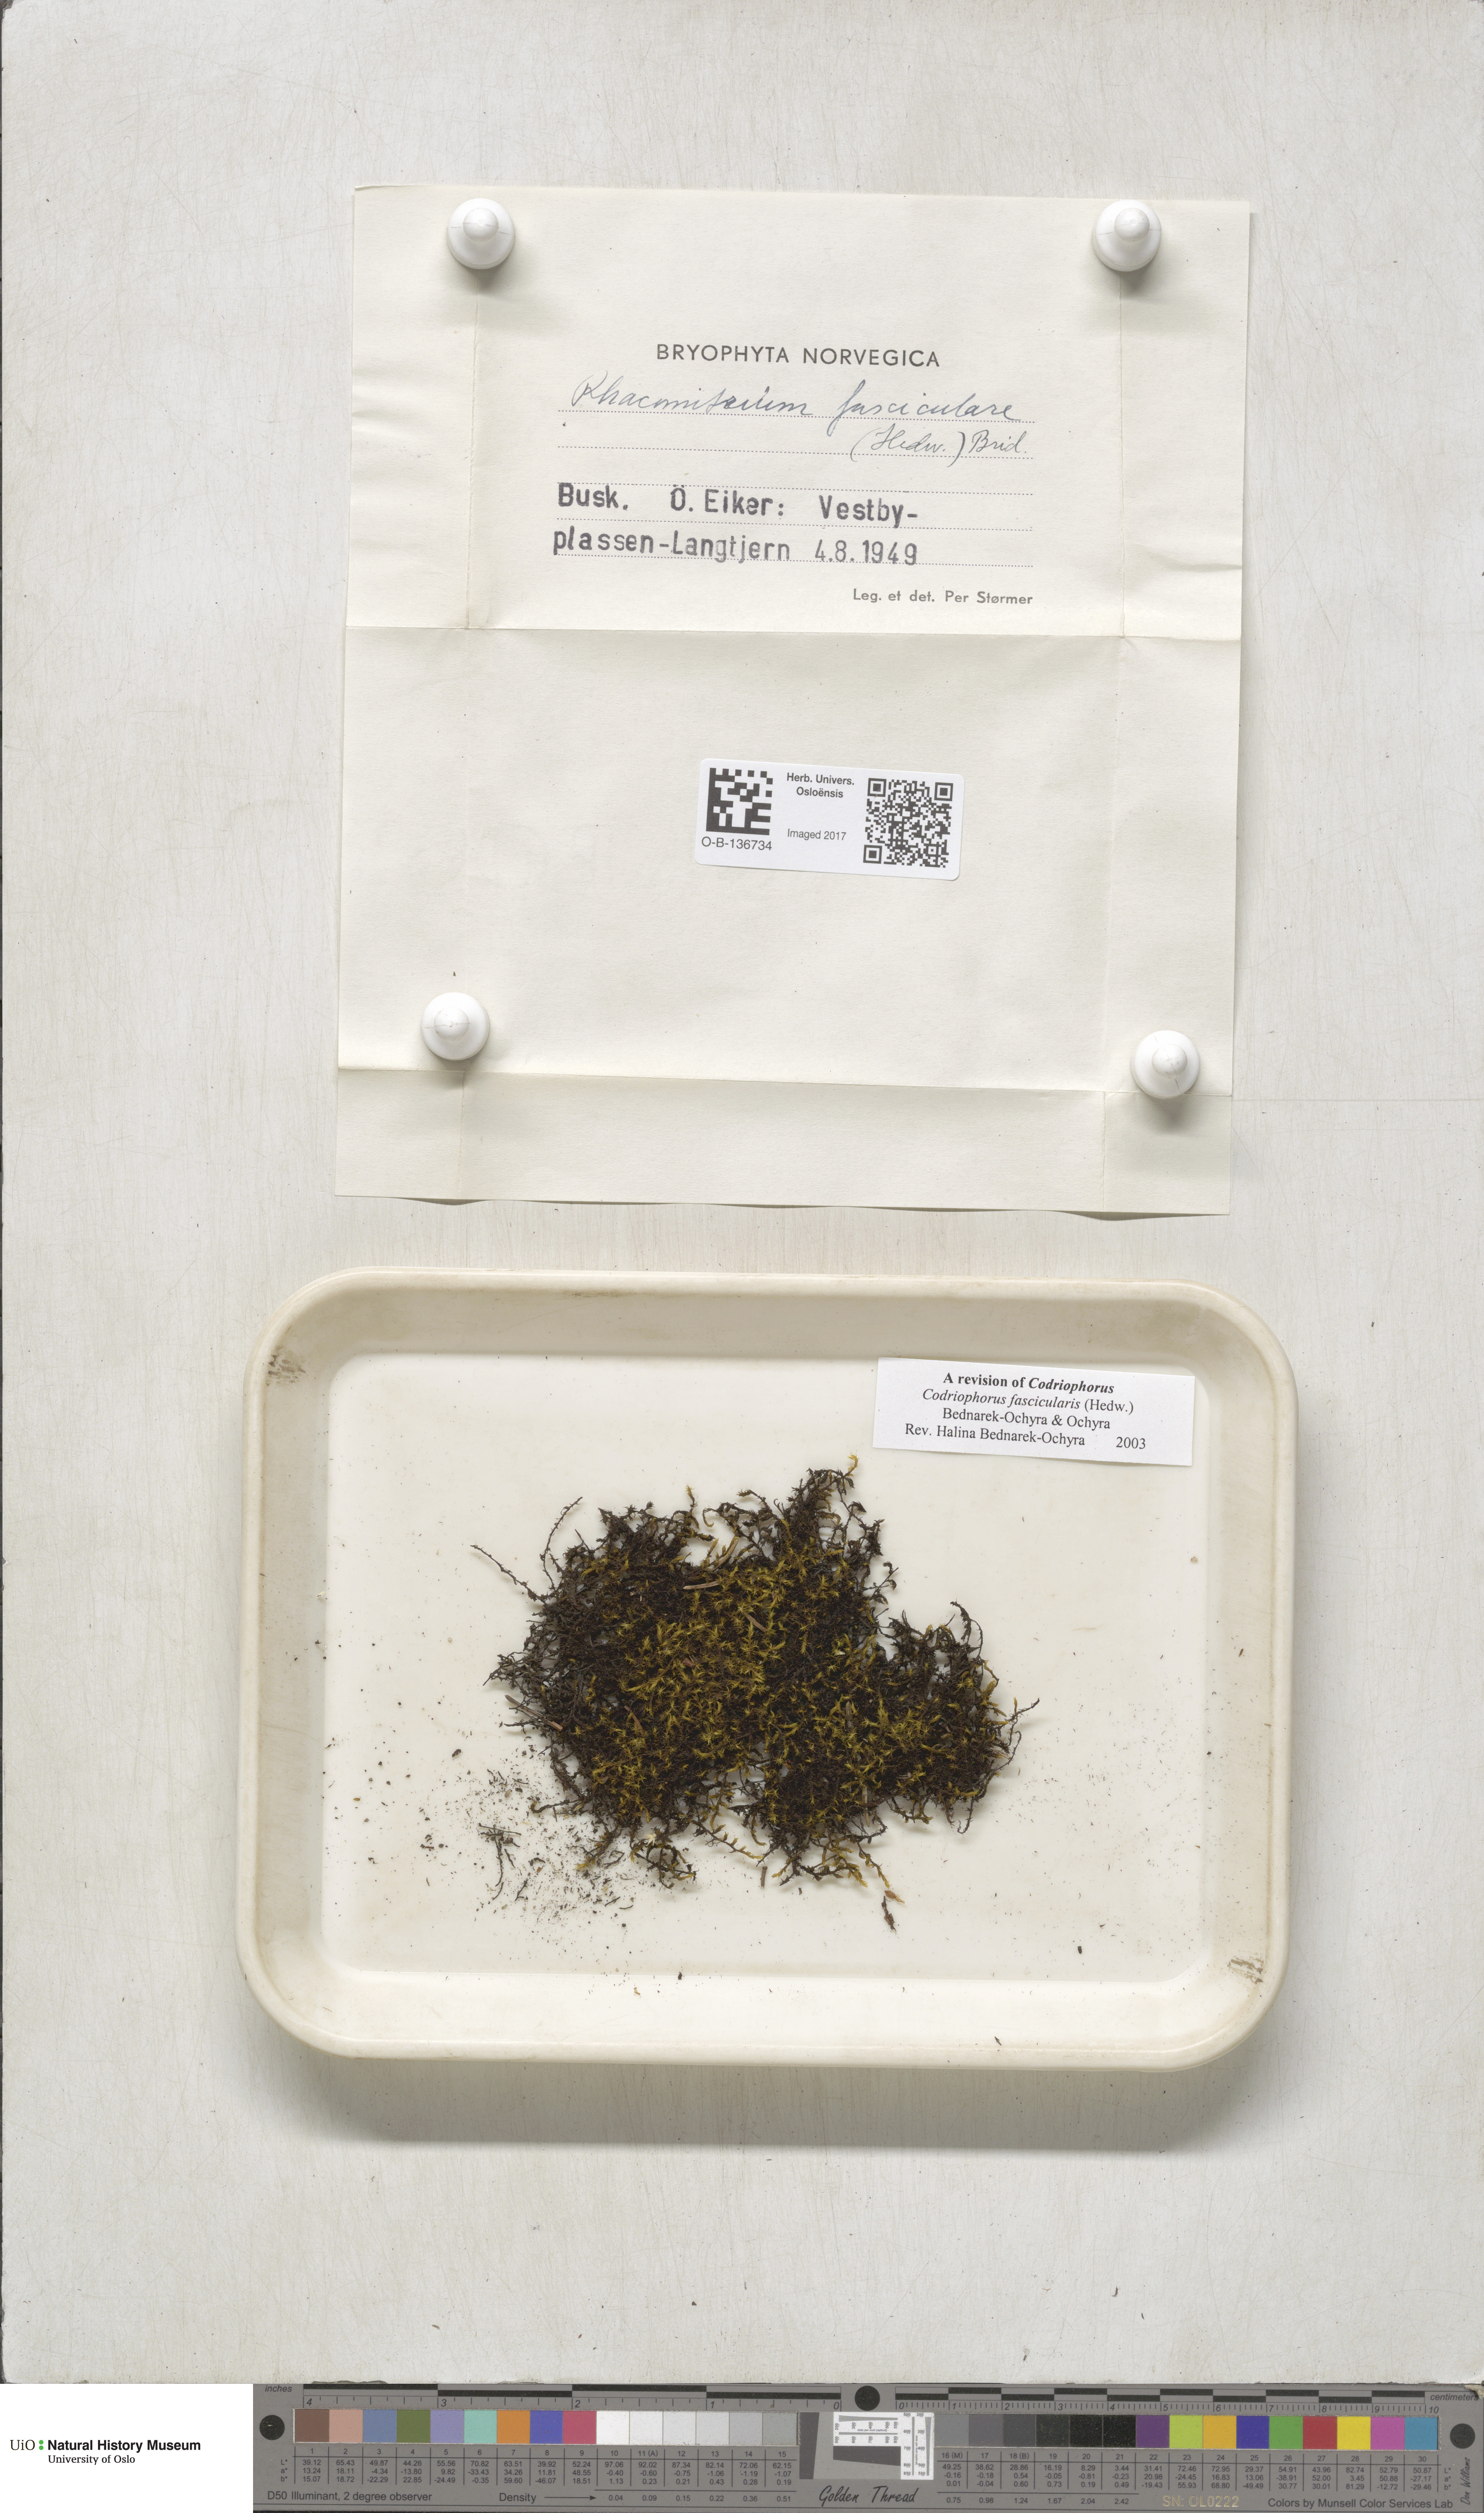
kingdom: Plantae
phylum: Bryophyta
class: Bryopsida
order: Grimmiales
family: Grimmiaceae
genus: Dilutineuron
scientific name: Dilutineuron fasciculare
